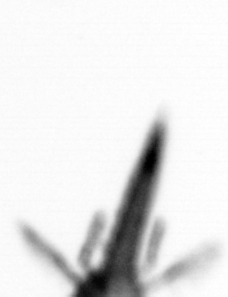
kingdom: Animalia
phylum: Arthropoda
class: Copepoda
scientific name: Copepoda
